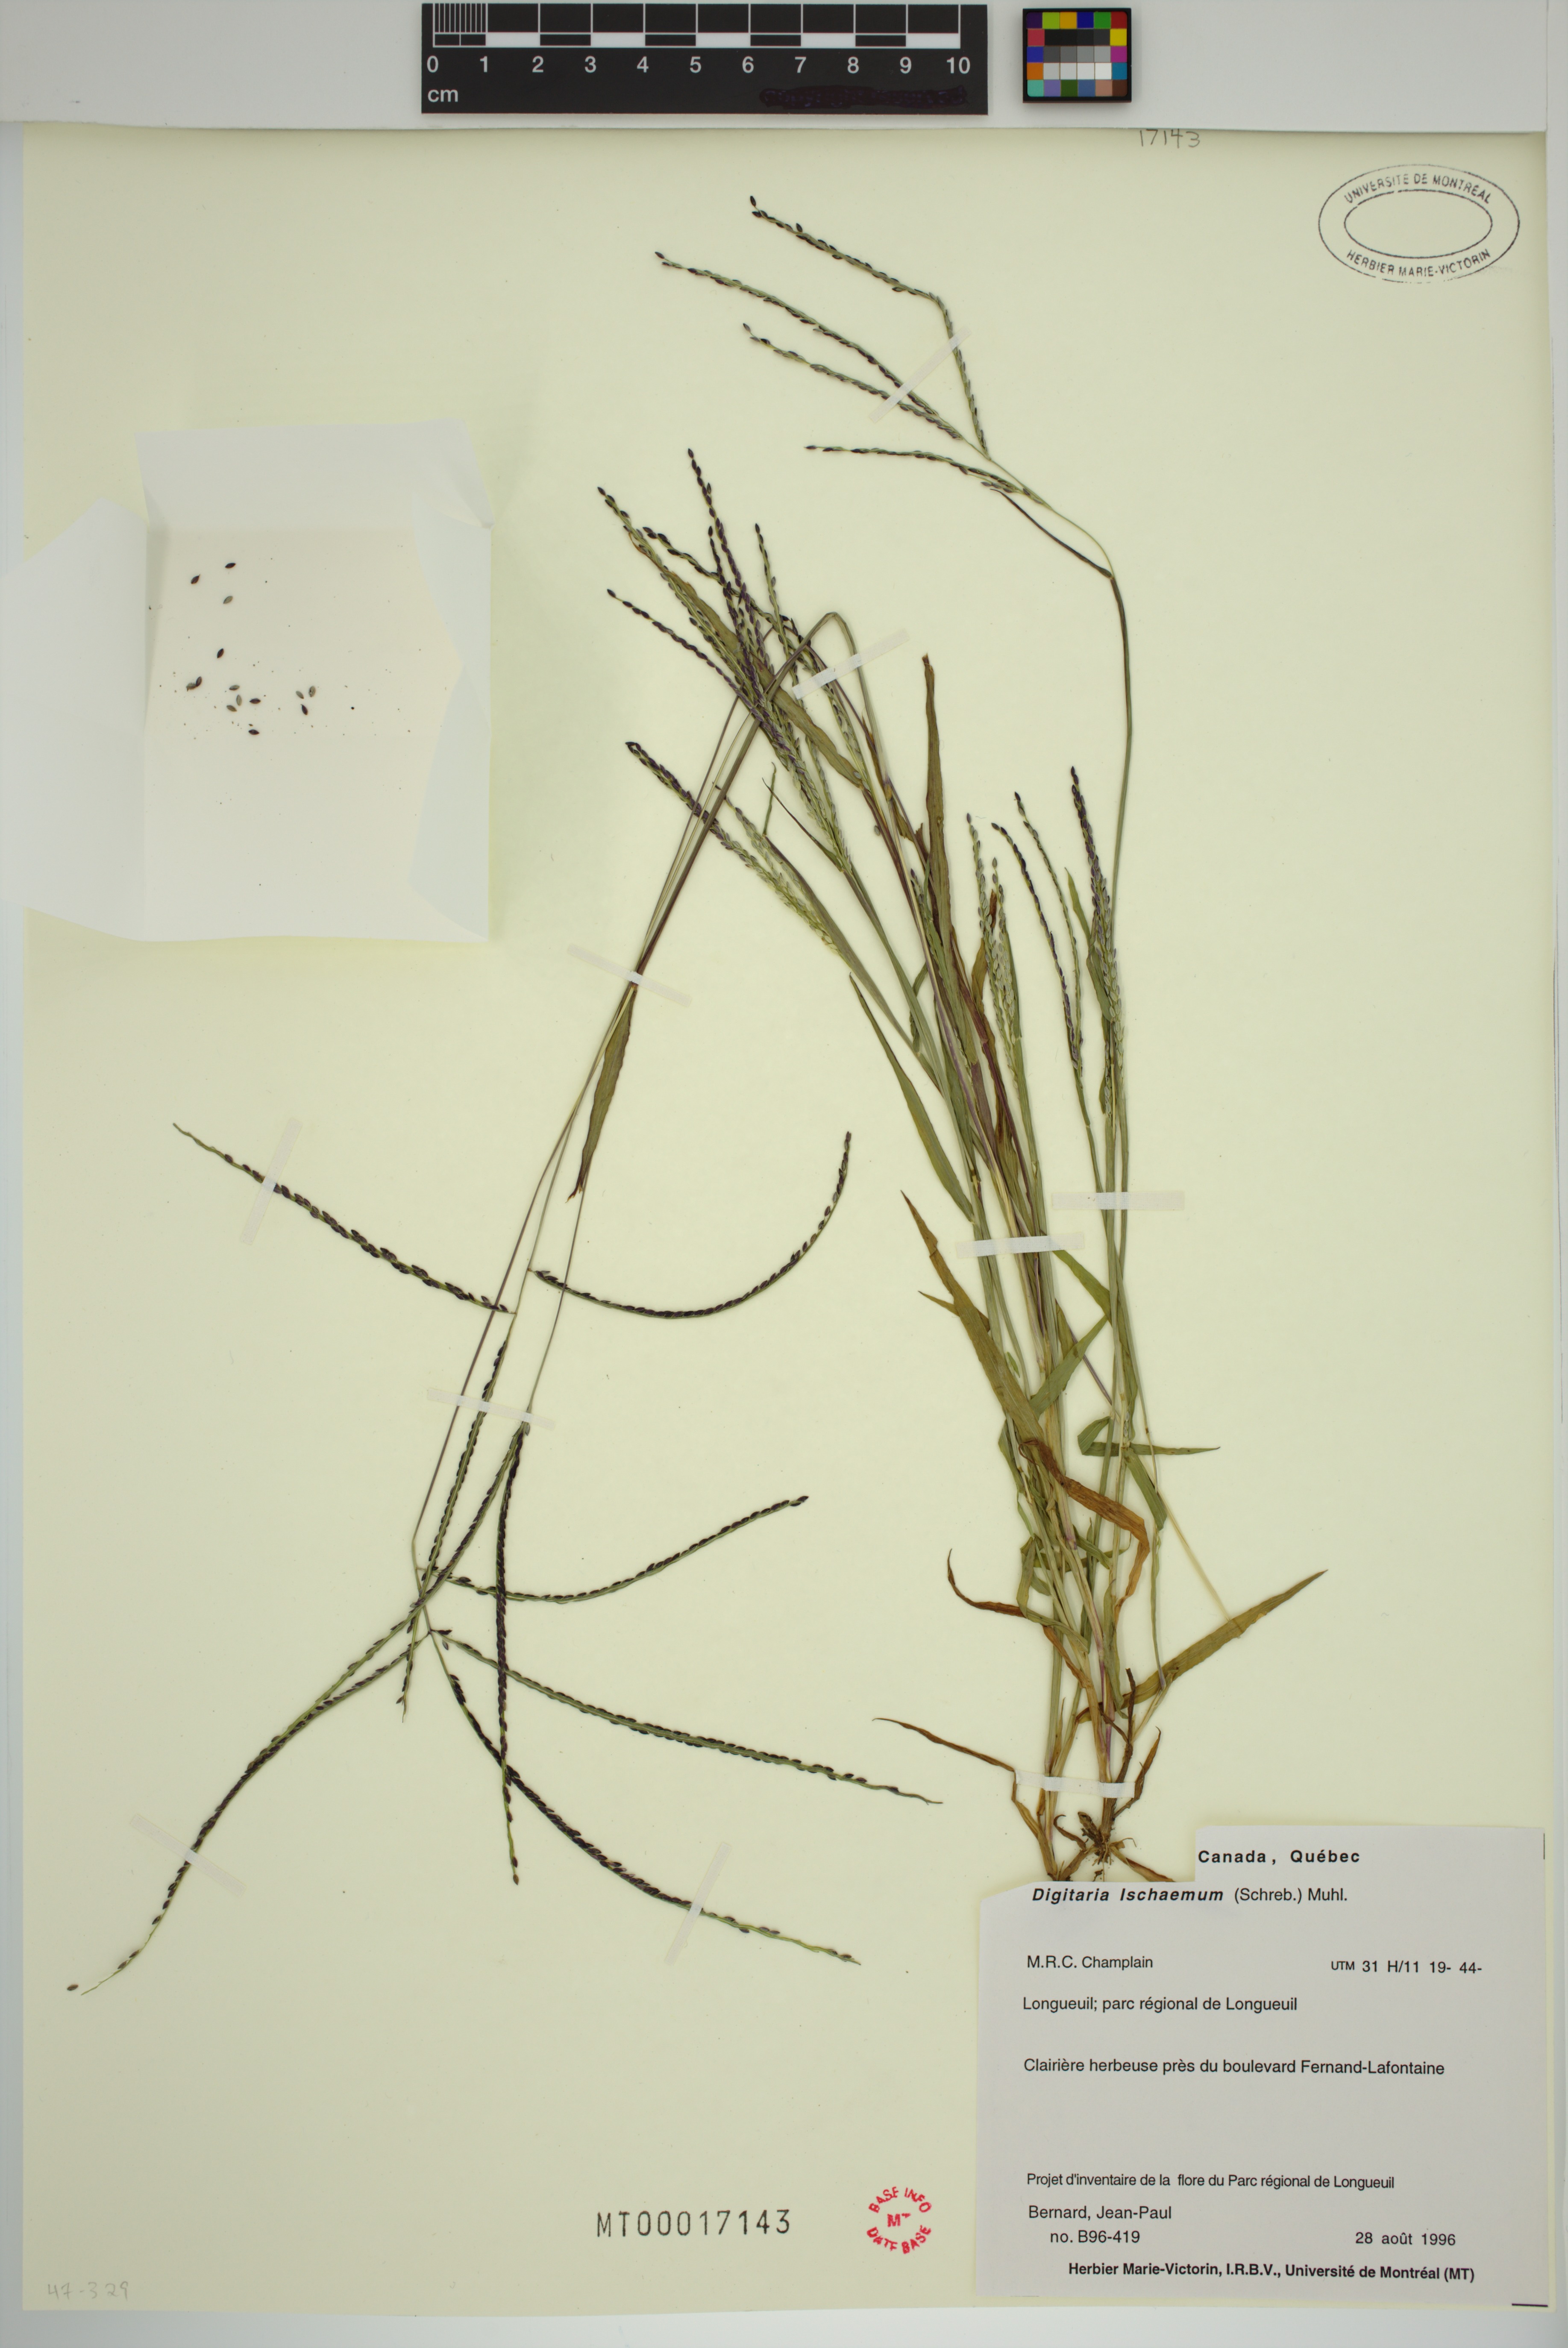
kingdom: Plantae
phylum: Tracheophyta
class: Liliopsida
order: Poales
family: Poaceae
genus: Digitaria
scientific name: Digitaria ischaemum
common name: Smooth crabgrass
